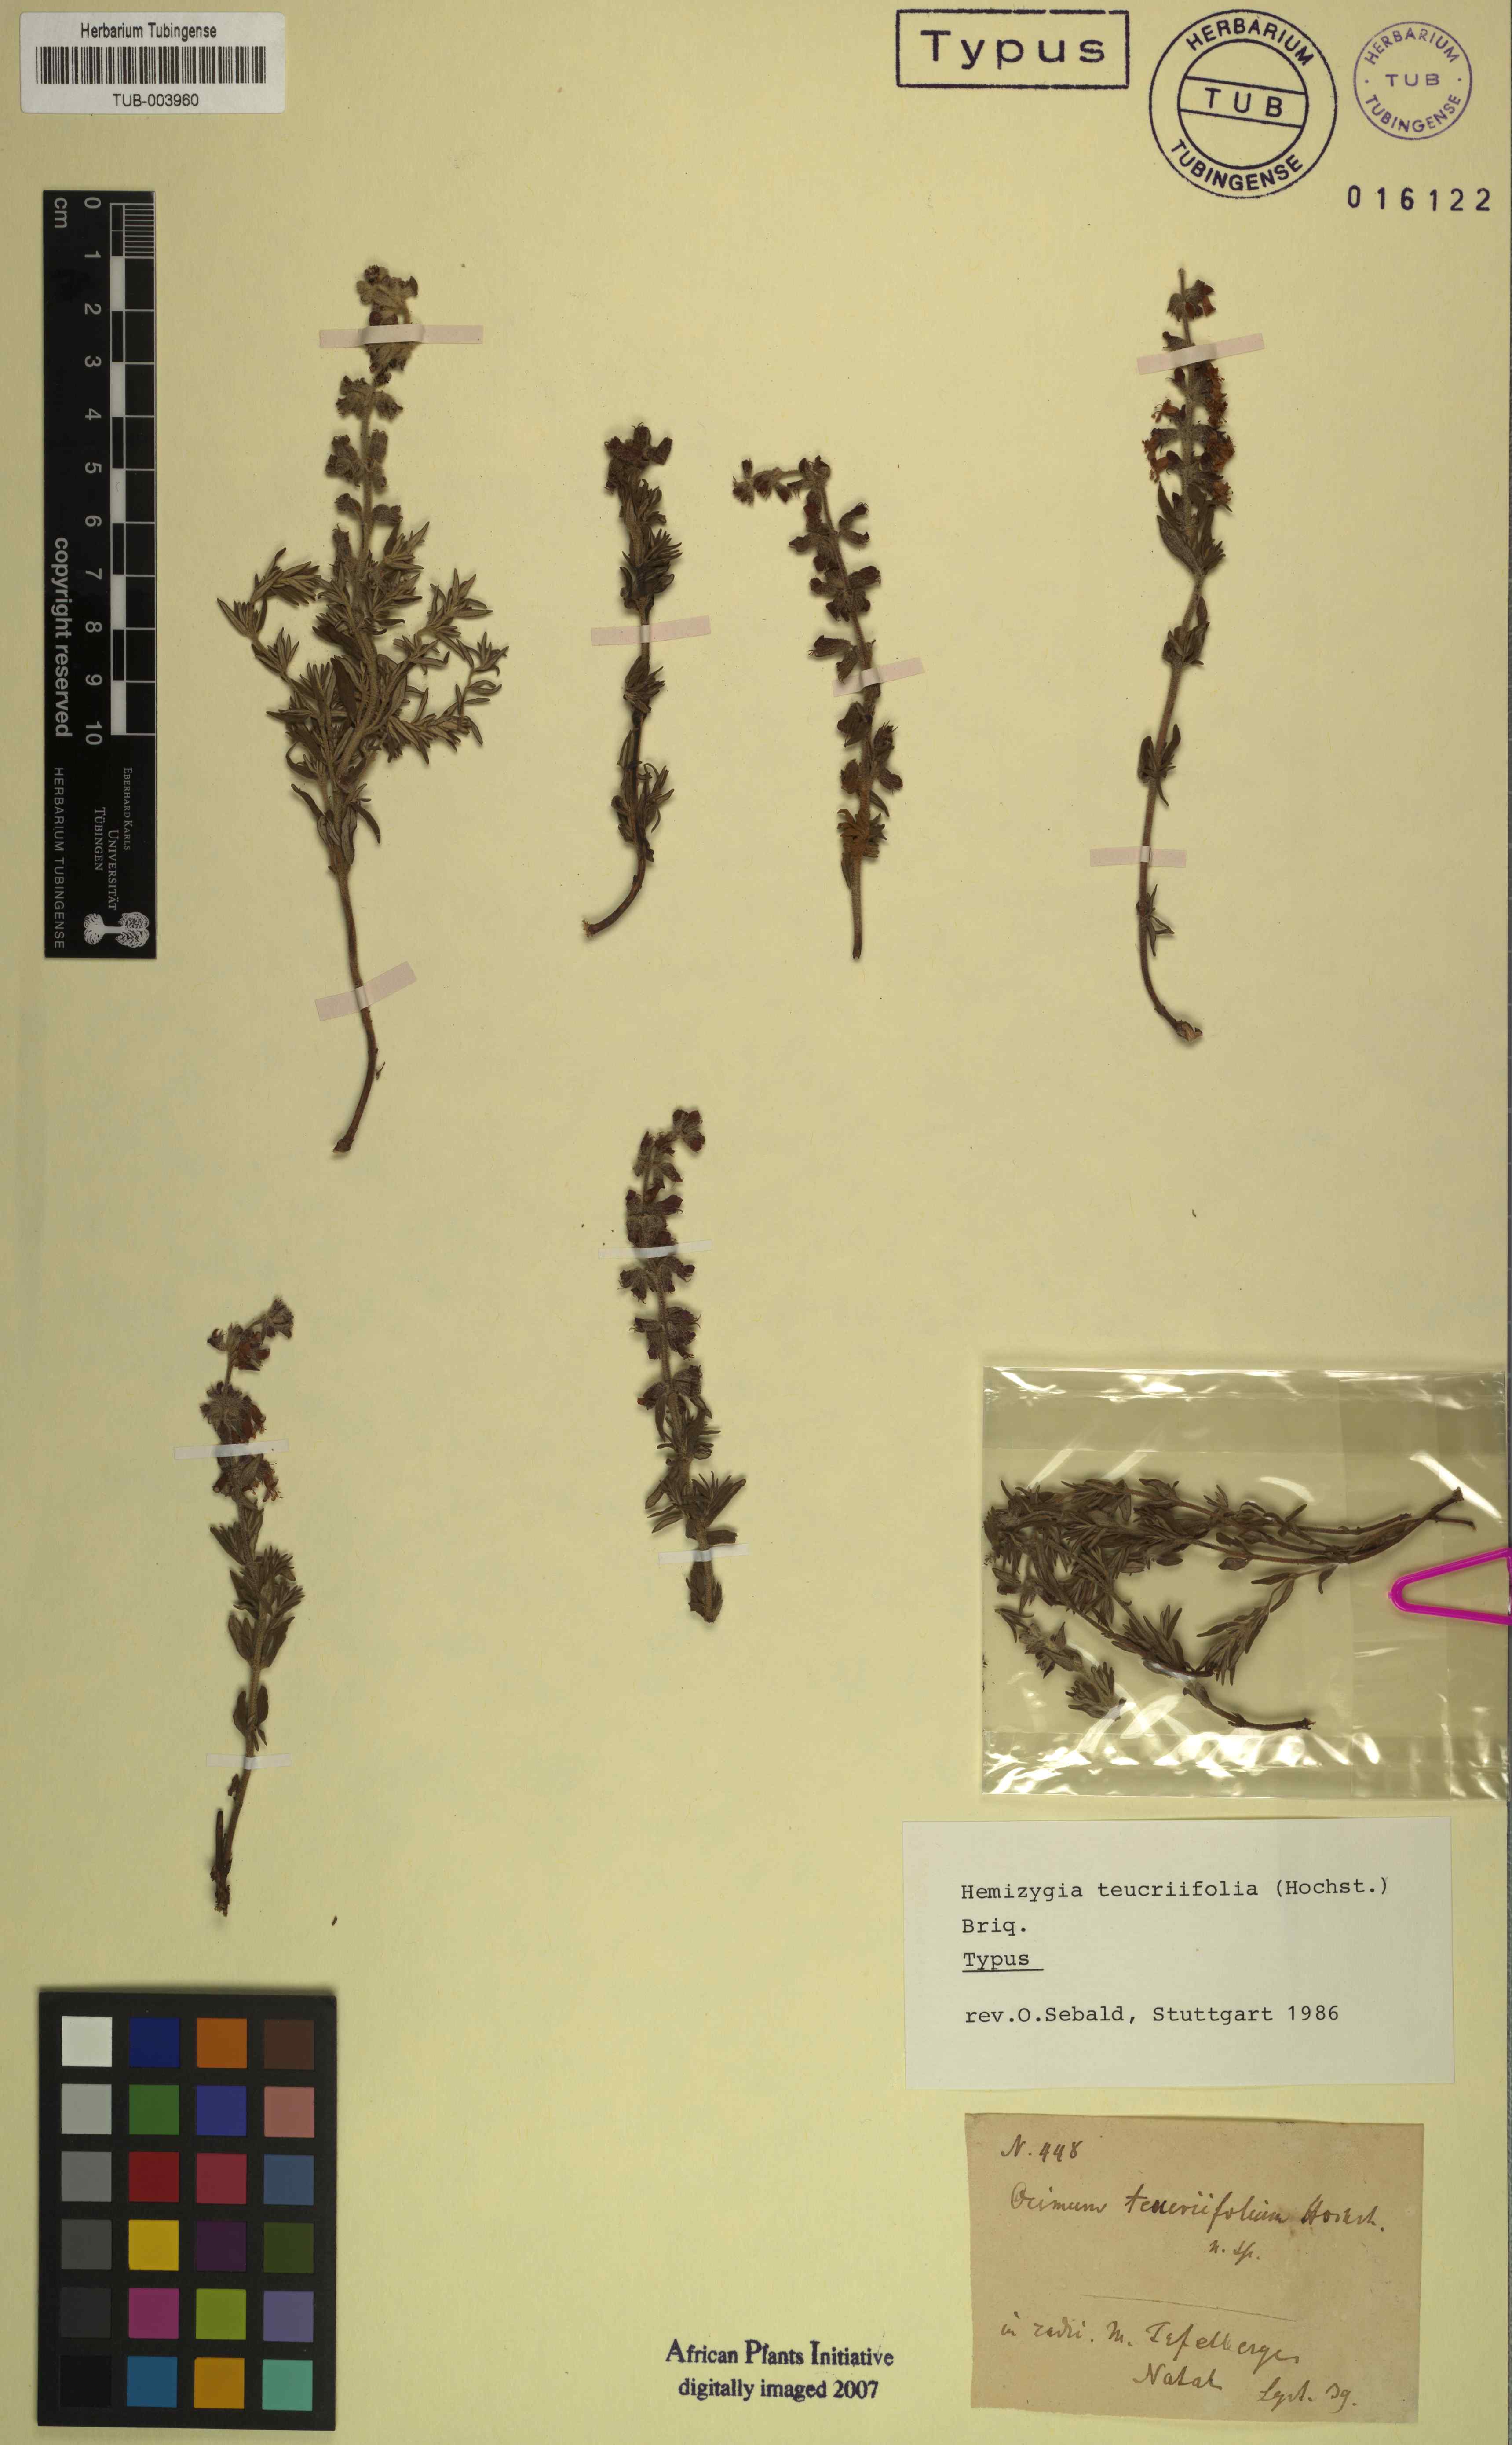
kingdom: Plantae
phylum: Tracheophyta
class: Magnoliopsida
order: Lamiales
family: Lamiaceae
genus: Syncolostemon
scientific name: Syncolostemon teucriifolius
